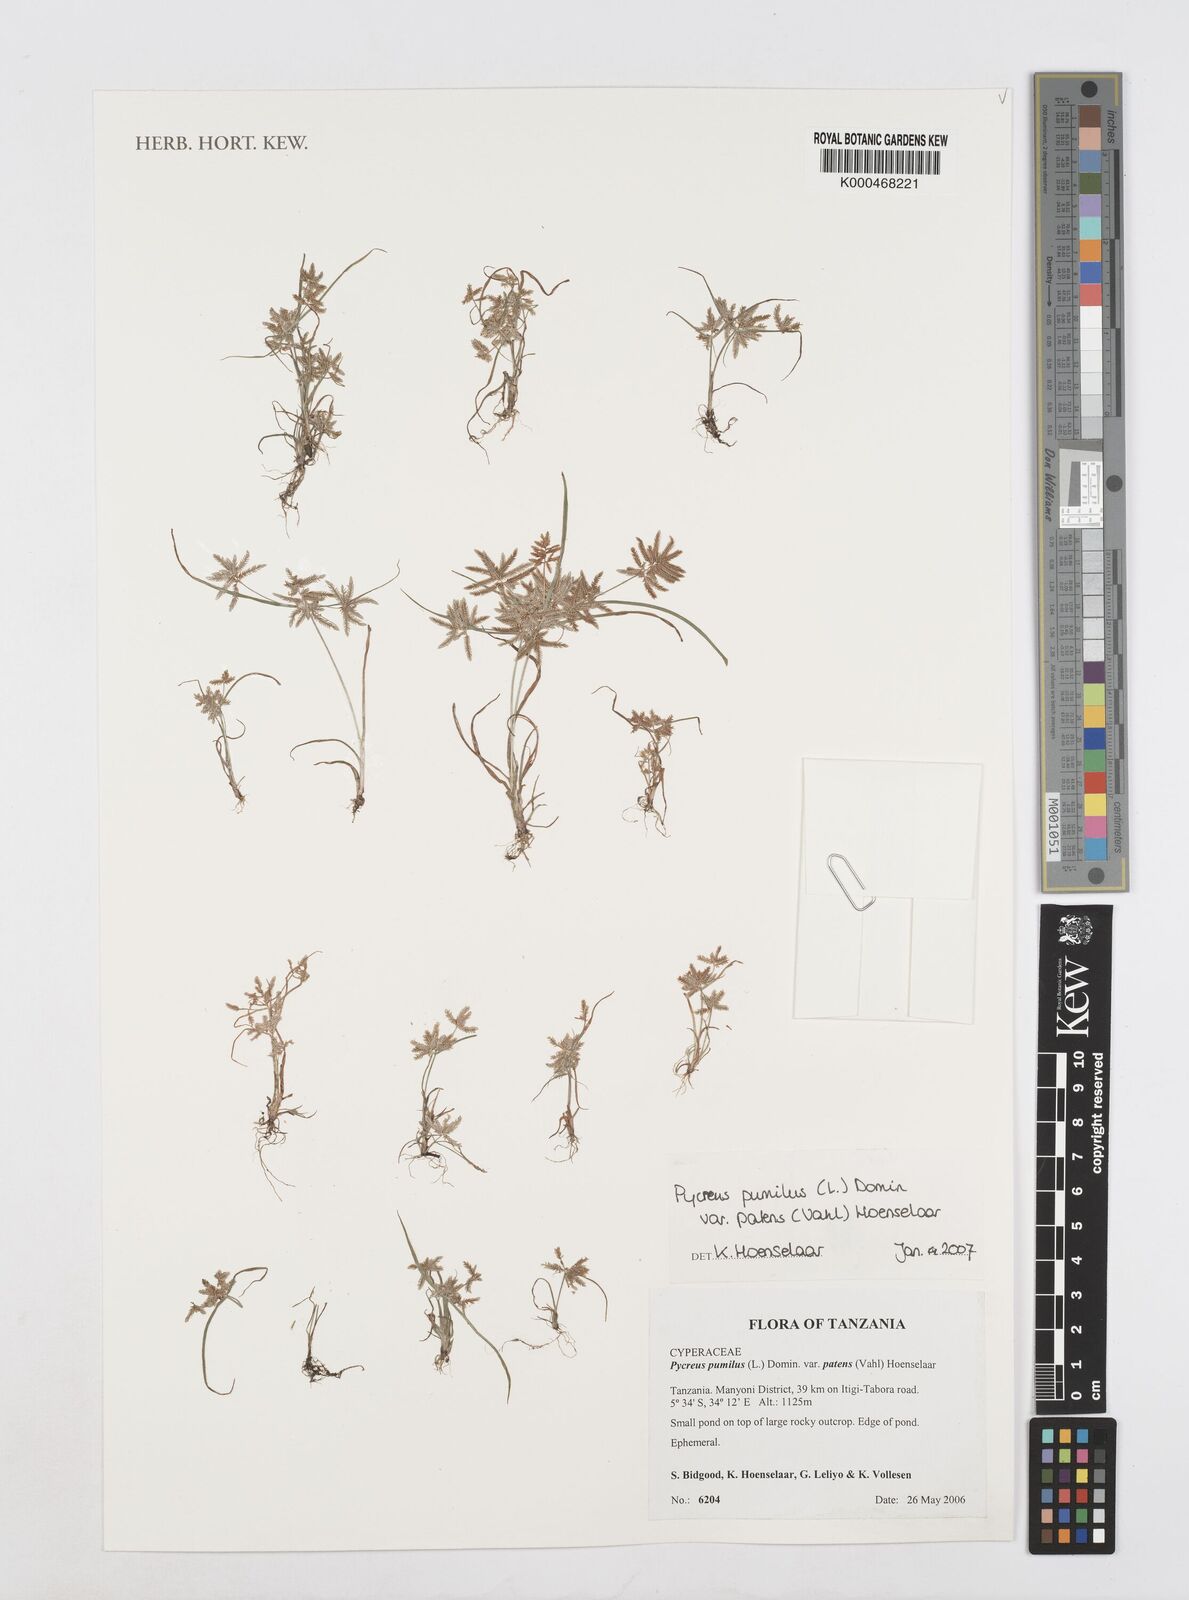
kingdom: Plantae
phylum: Tracheophyta
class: Liliopsida
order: Poales
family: Cyperaceae
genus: Cyperus
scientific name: Cyperus
